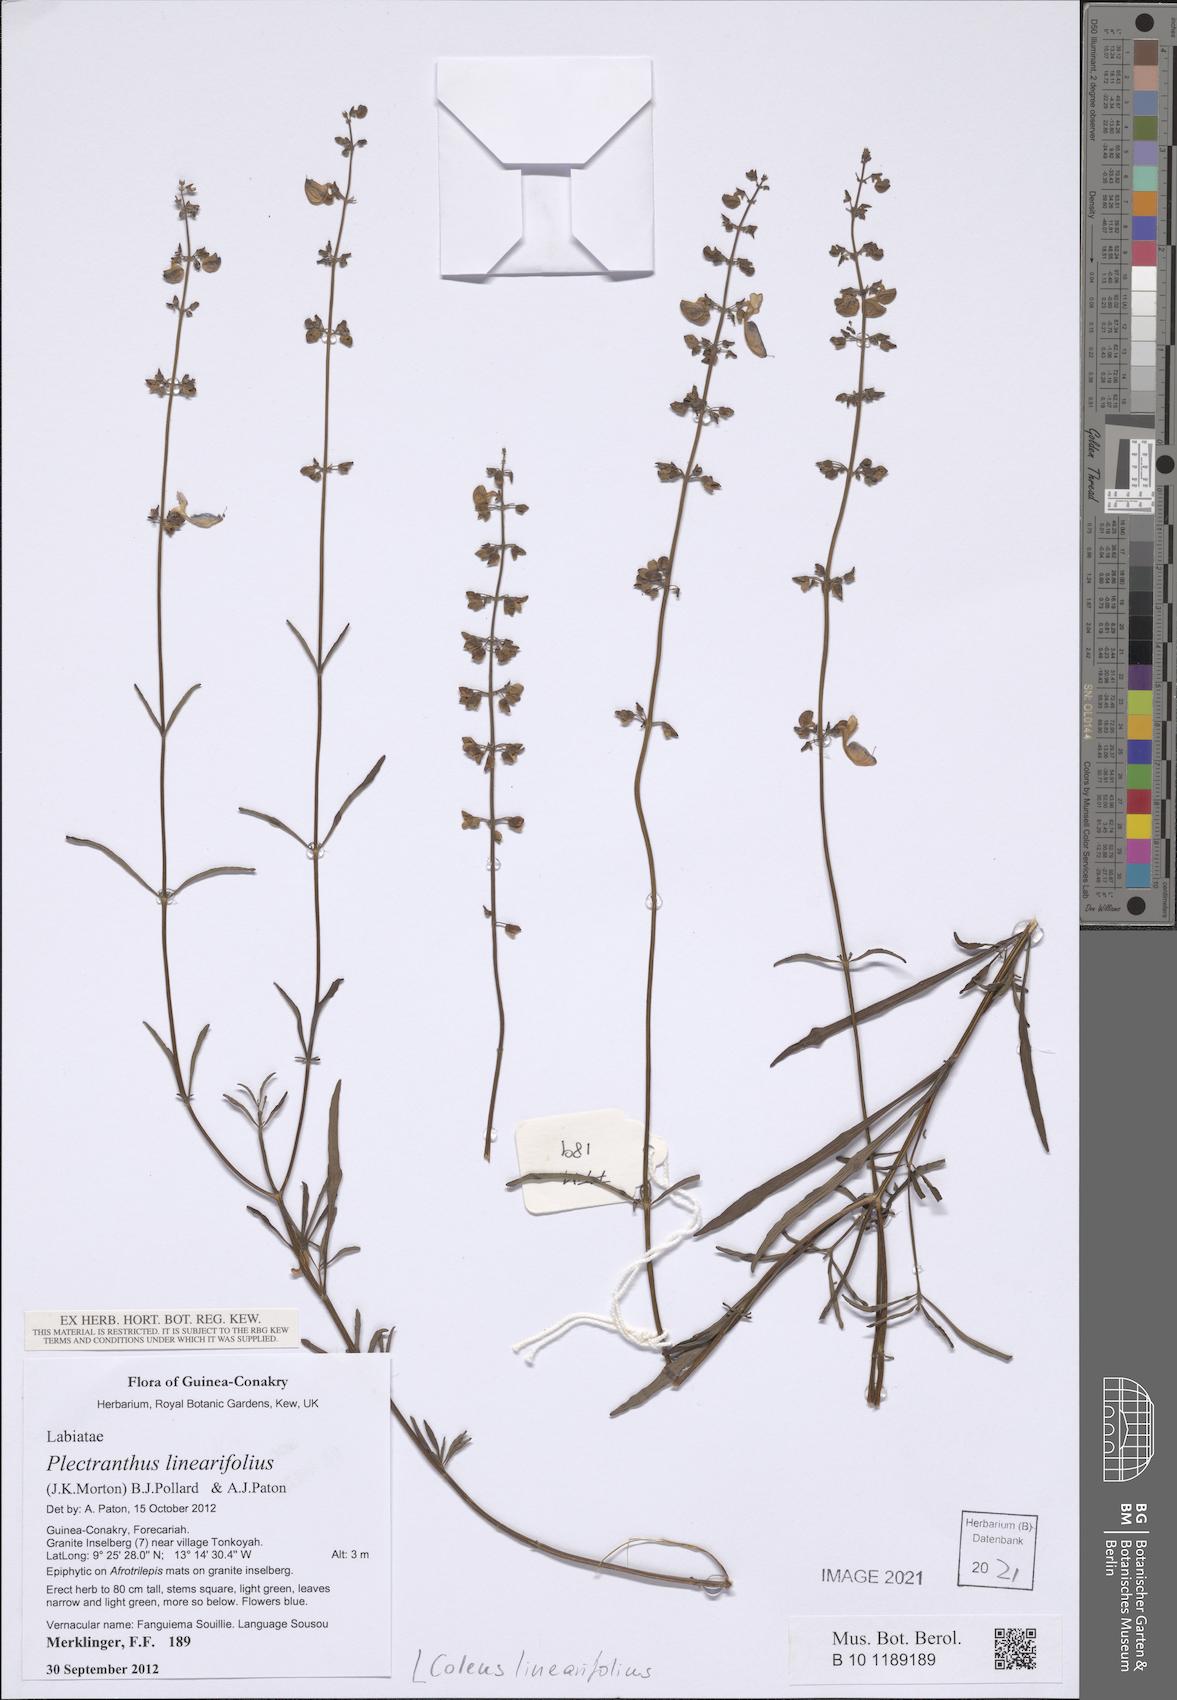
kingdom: Plantae
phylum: Tracheophyta
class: Magnoliopsida
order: Lamiales
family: Lamiaceae
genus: Coleus
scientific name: Coleus linearifolius
